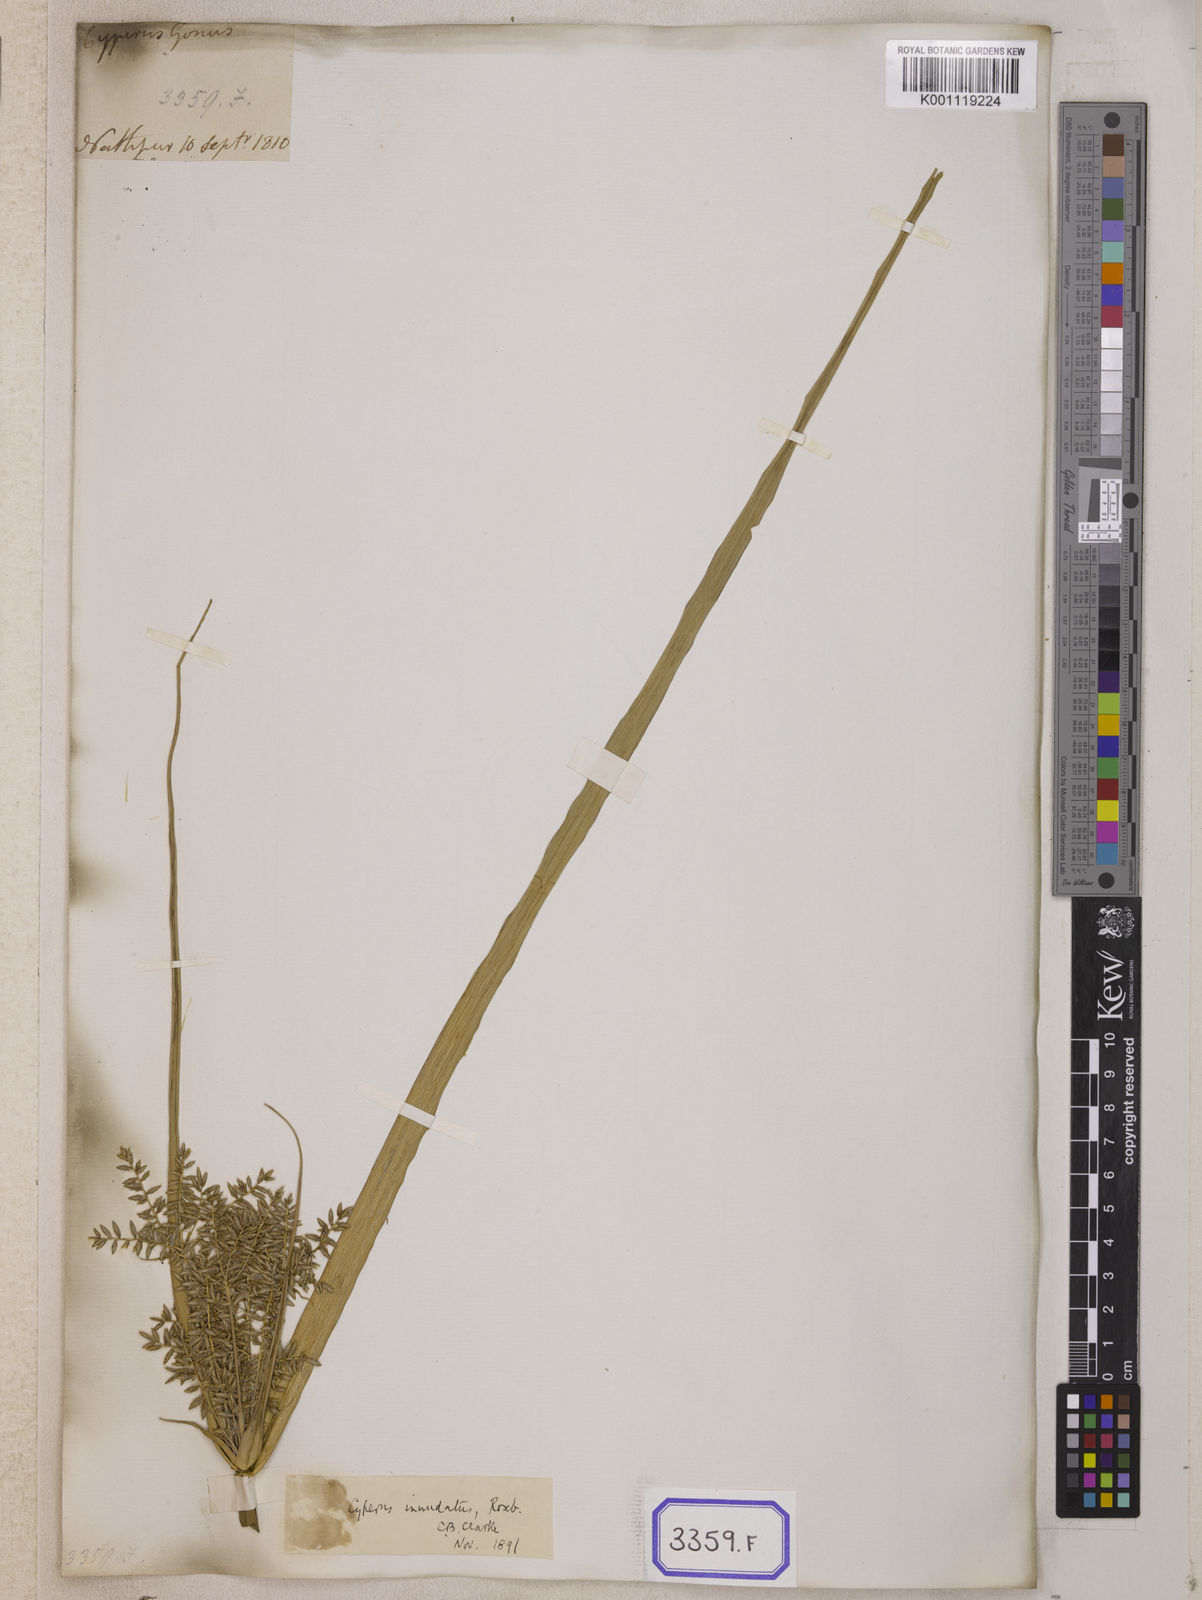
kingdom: Plantae
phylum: Tracheophyta
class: Liliopsida
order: Poales
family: Cyperaceae
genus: Cyperus
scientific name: Cyperus
